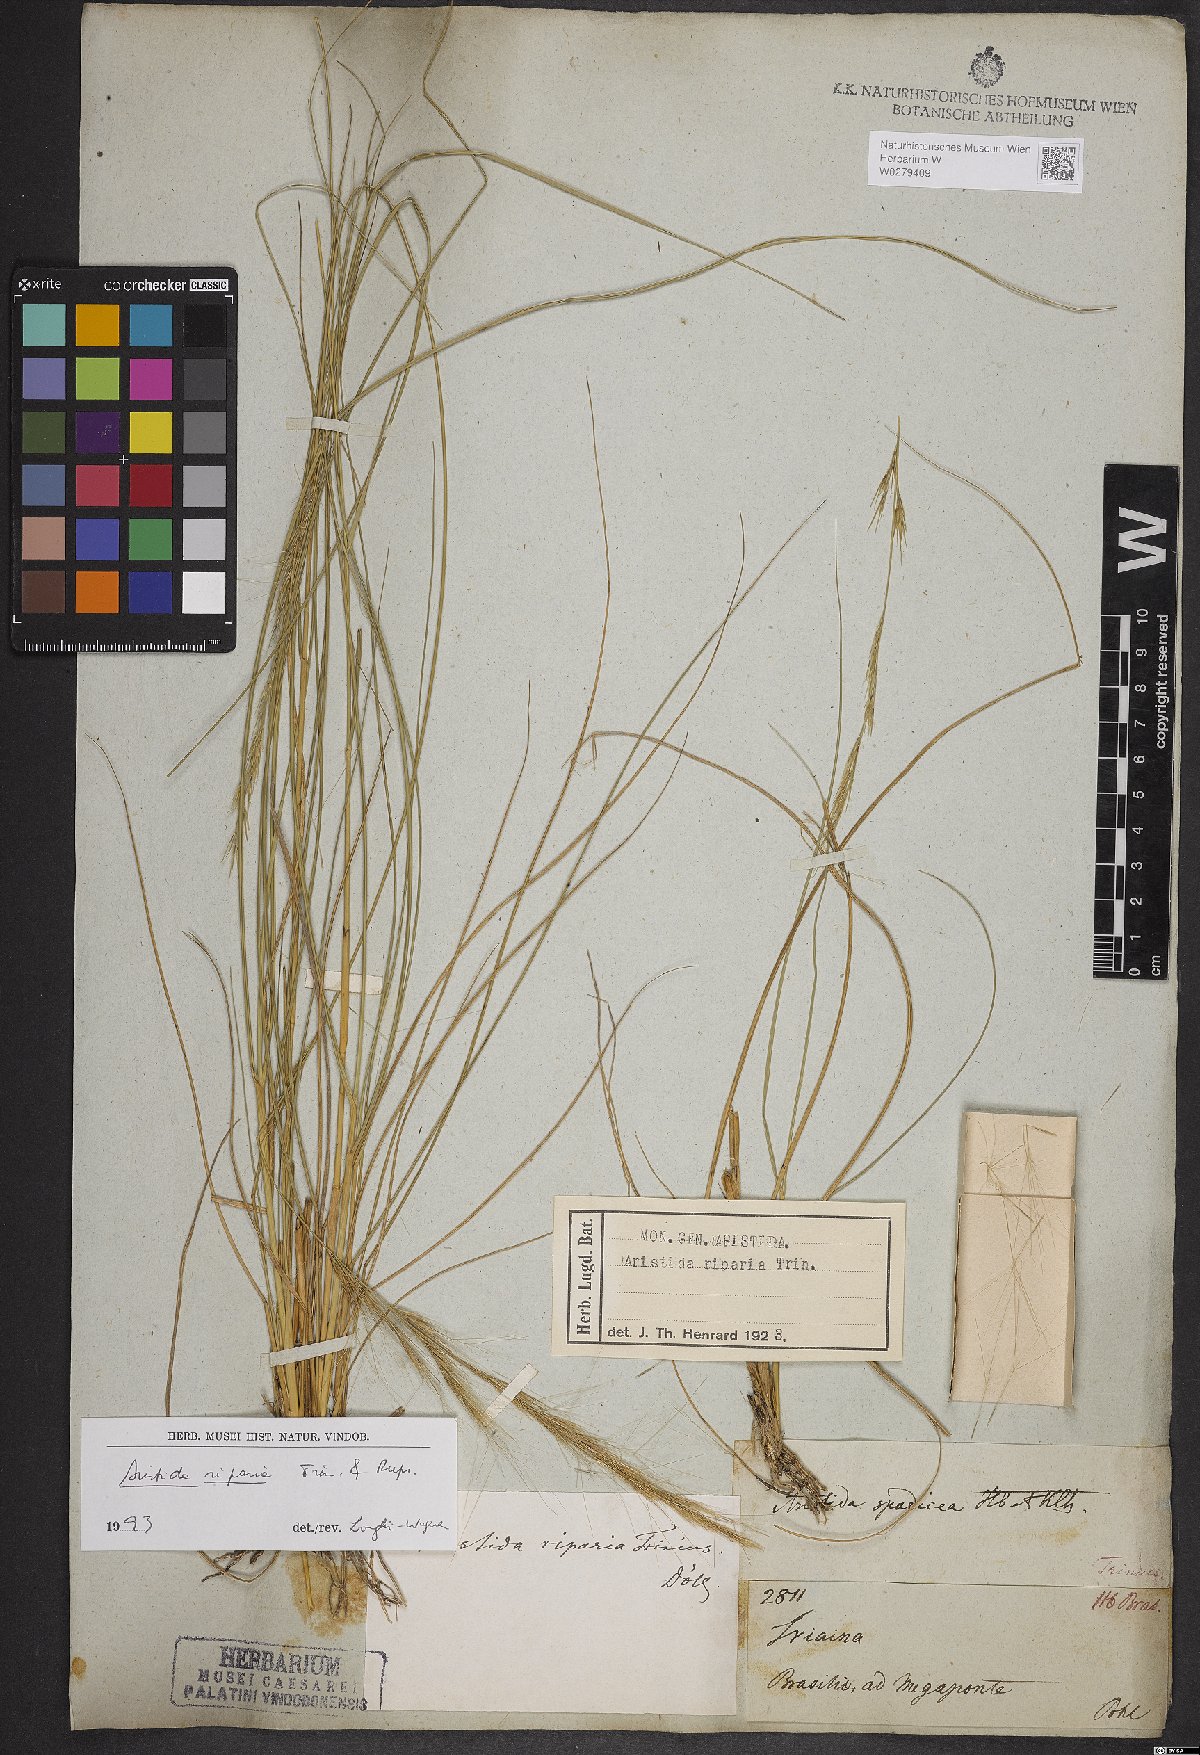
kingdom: Plantae
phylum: Tracheophyta
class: Liliopsida
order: Poales
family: Poaceae
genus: Aristida
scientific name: Aristida riparia
